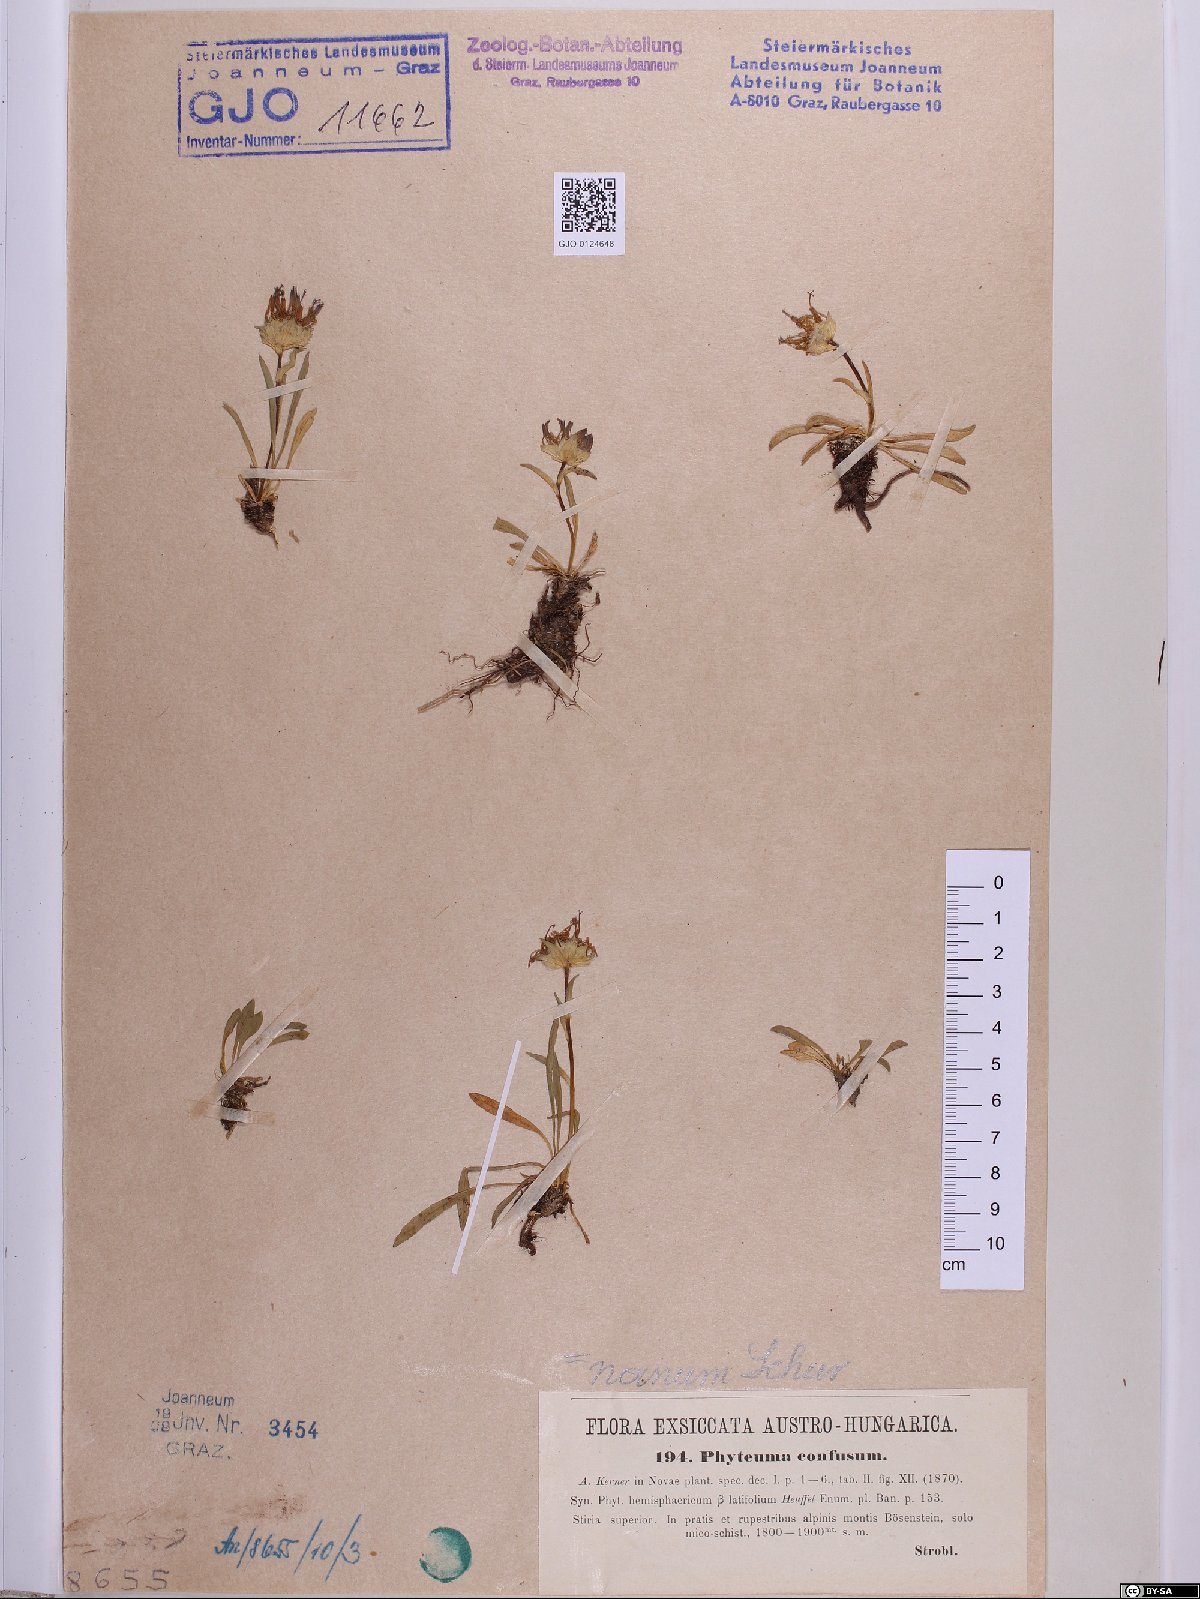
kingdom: Plantae
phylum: Tracheophyta
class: Magnoliopsida
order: Asterales
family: Campanulaceae
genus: Phyteuma
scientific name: Phyteuma confusum
